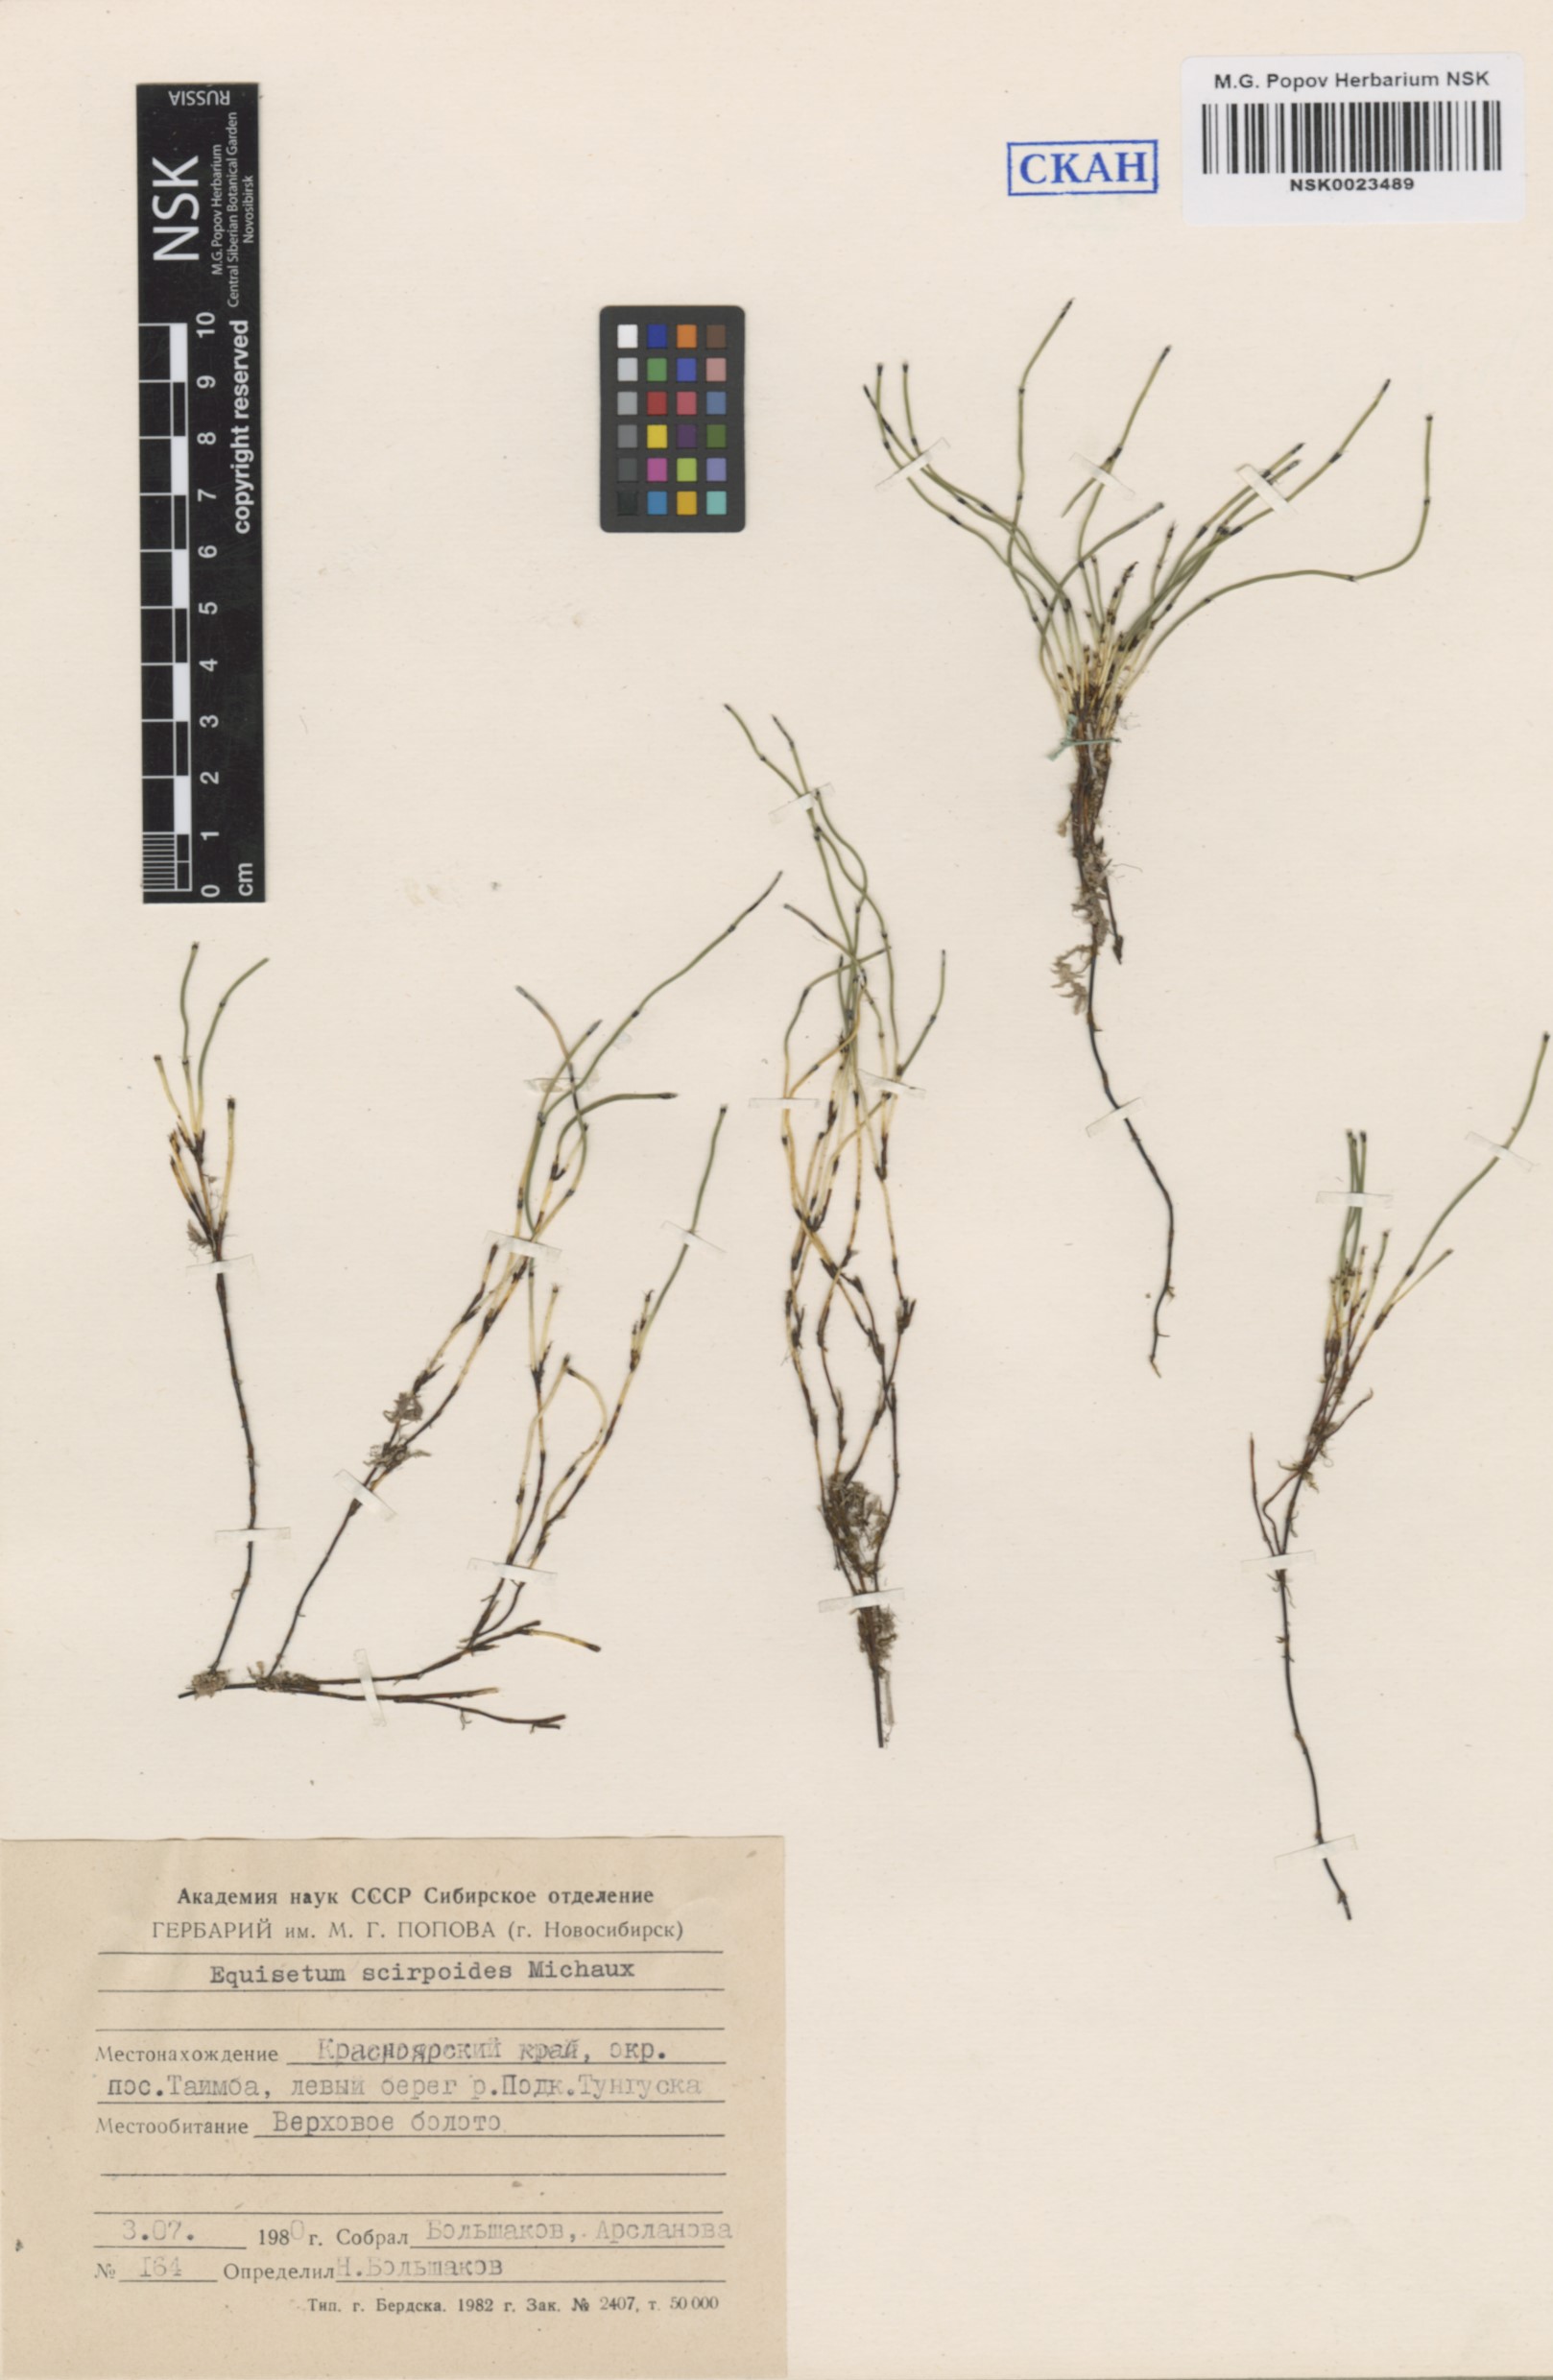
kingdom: Plantae
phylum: Tracheophyta
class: Polypodiopsida
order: Equisetales
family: Equisetaceae
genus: Equisetum
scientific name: Equisetum scirpoides
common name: Delicate horsetail
